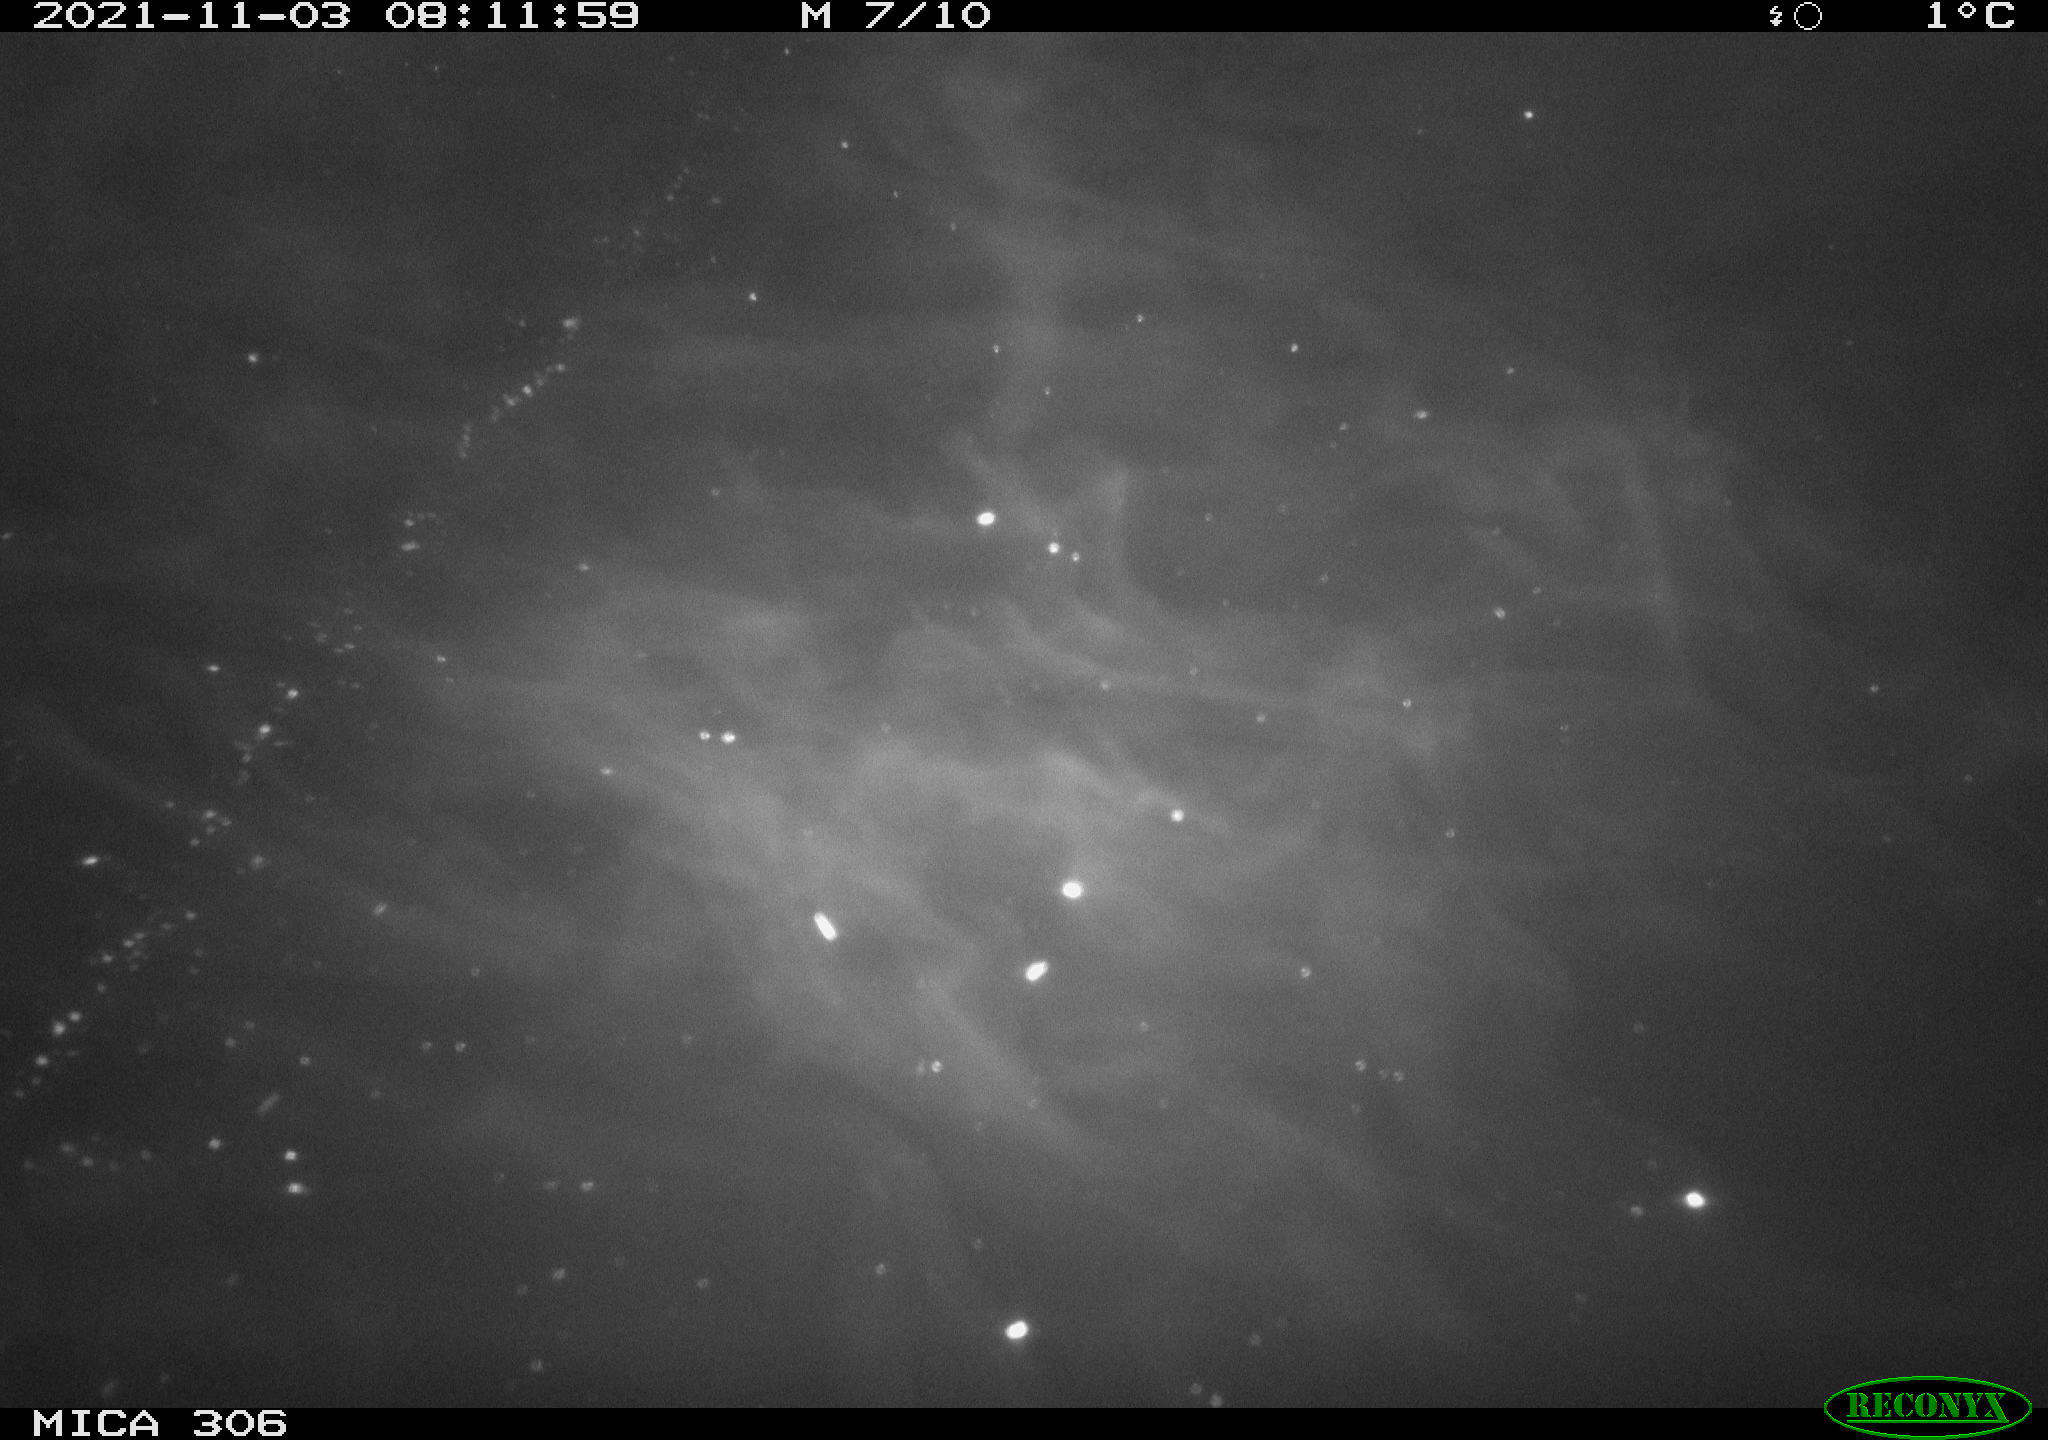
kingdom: Animalia
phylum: Chordata
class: Aves
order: Gruiformes
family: Rallidae
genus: Gallinula
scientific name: Gallinula chloropus
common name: Common moorhen
